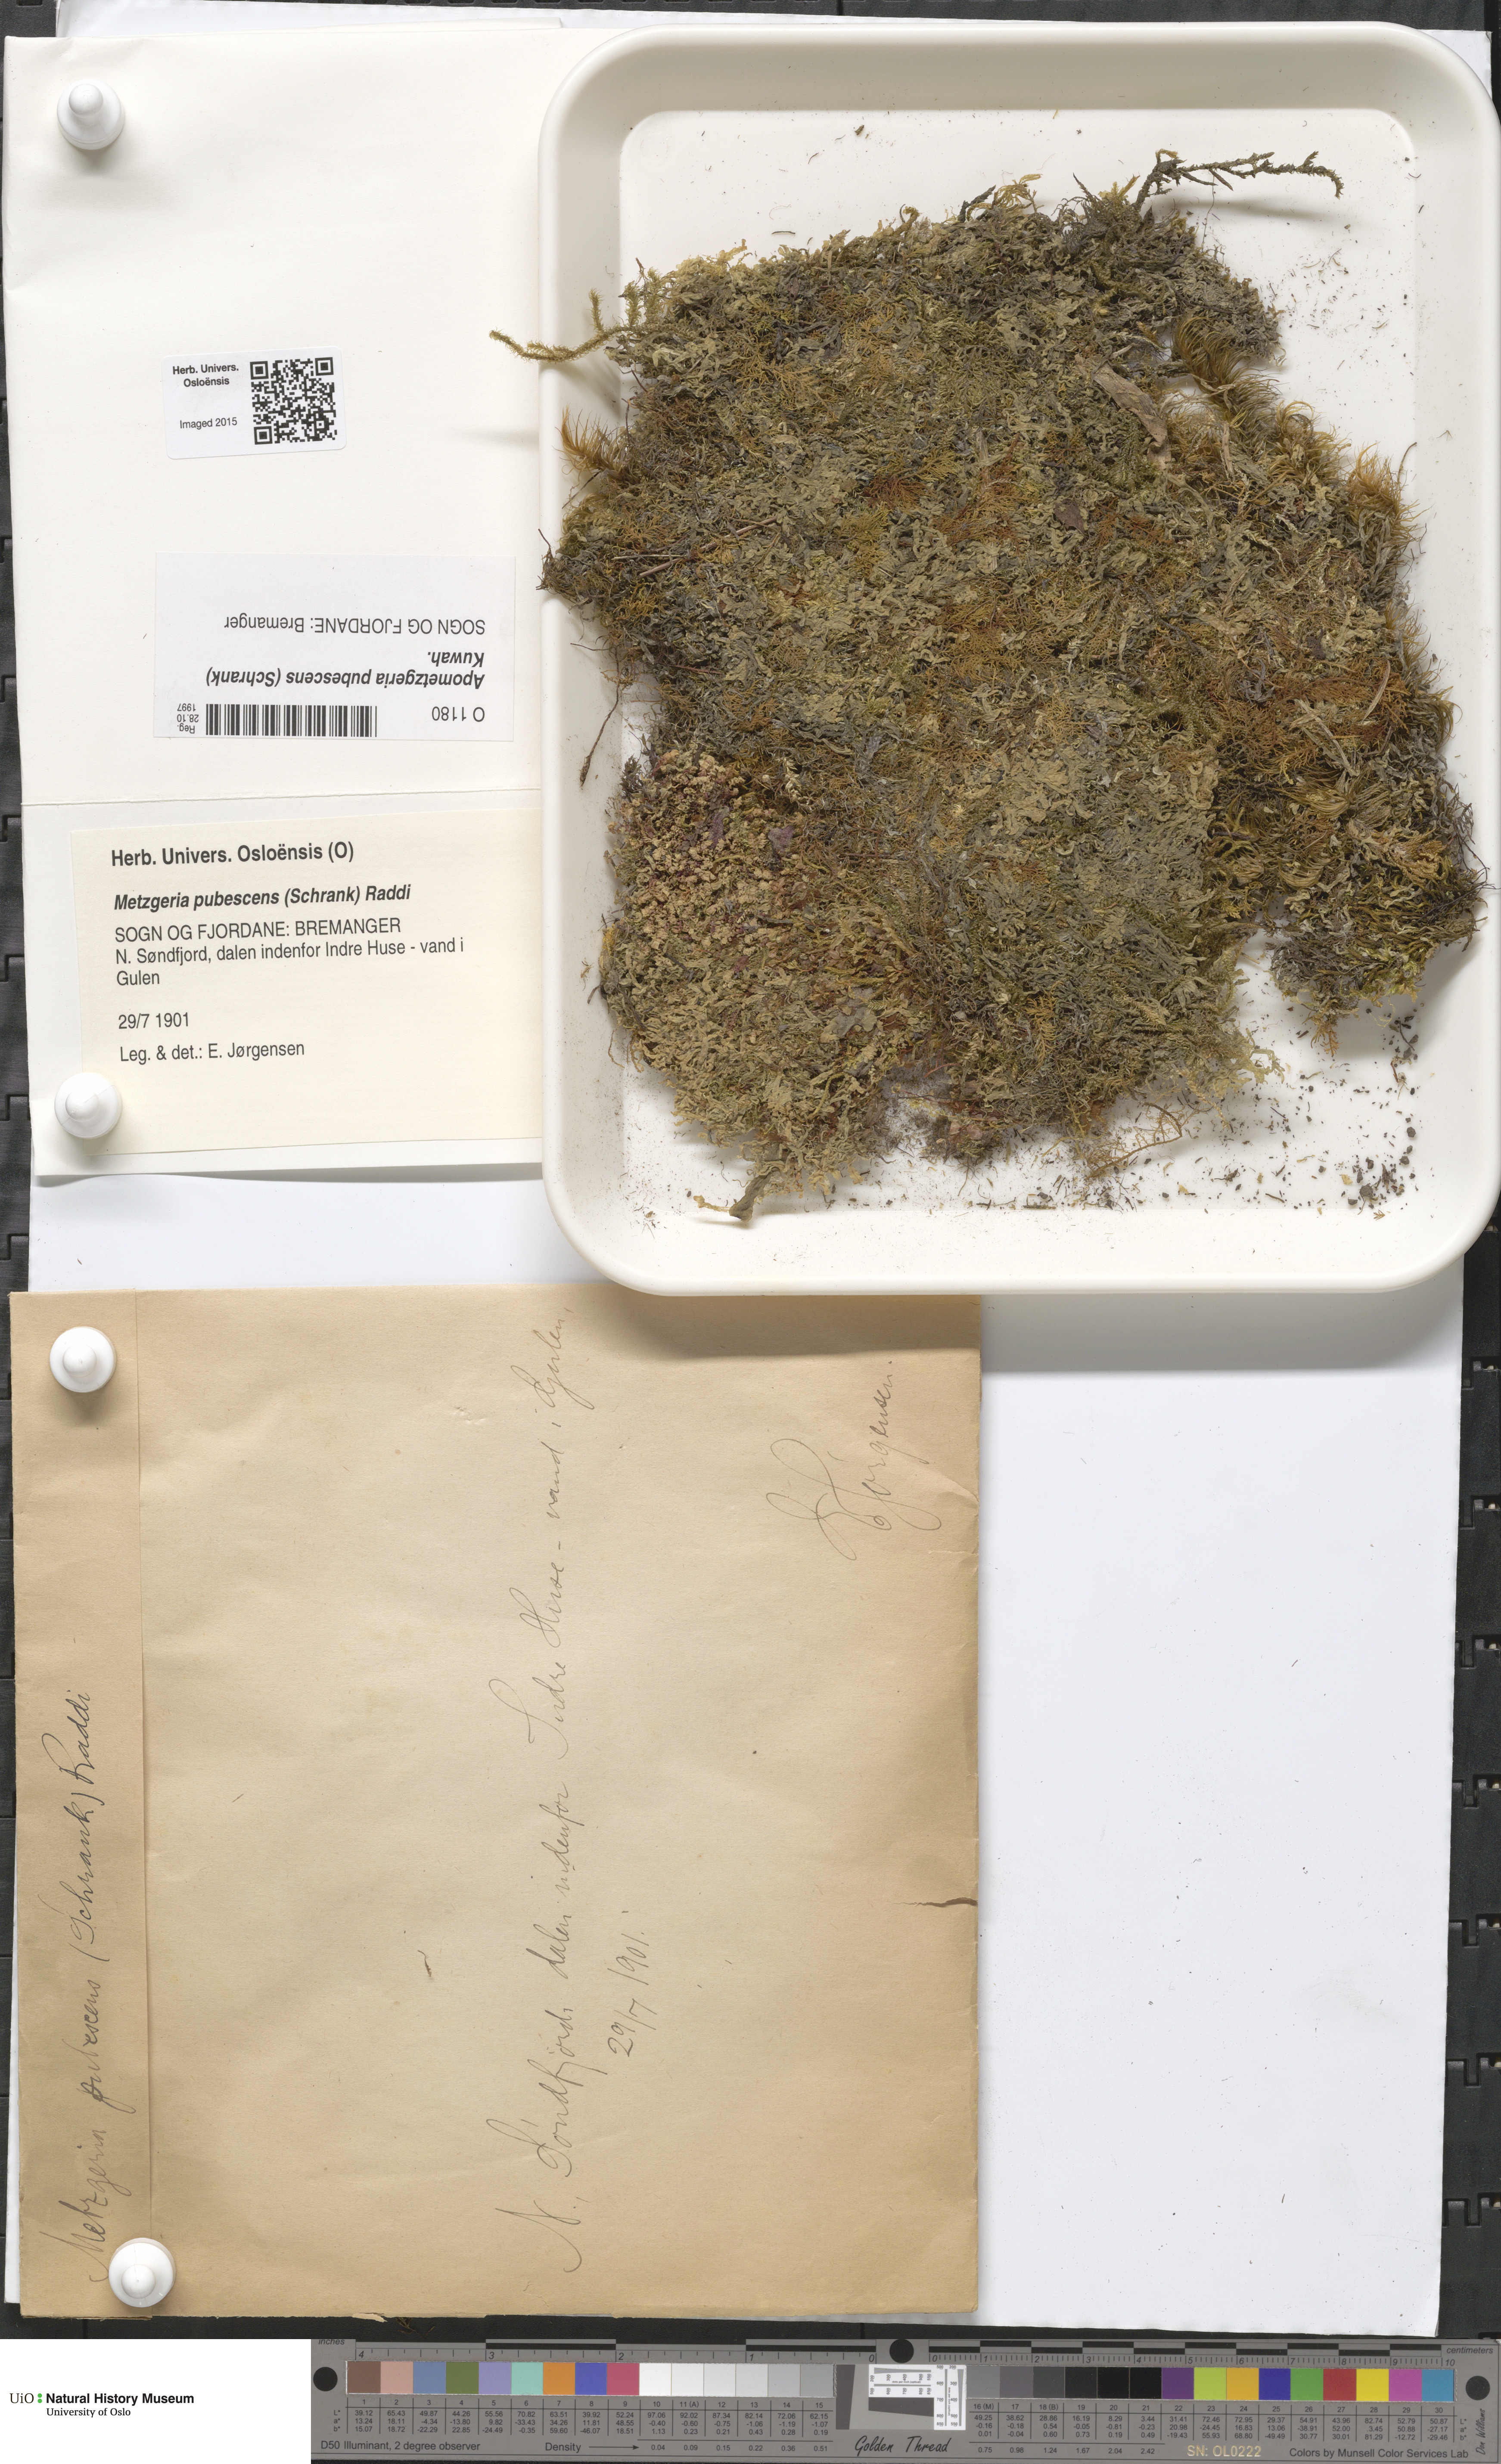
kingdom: Plantae
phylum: Marchantiophyta
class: Jungermanniopsida
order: Metzgeriales
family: Metzgeriaceae
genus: Metzgeria
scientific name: Metzgeria pubescens
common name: Downy veilwort
